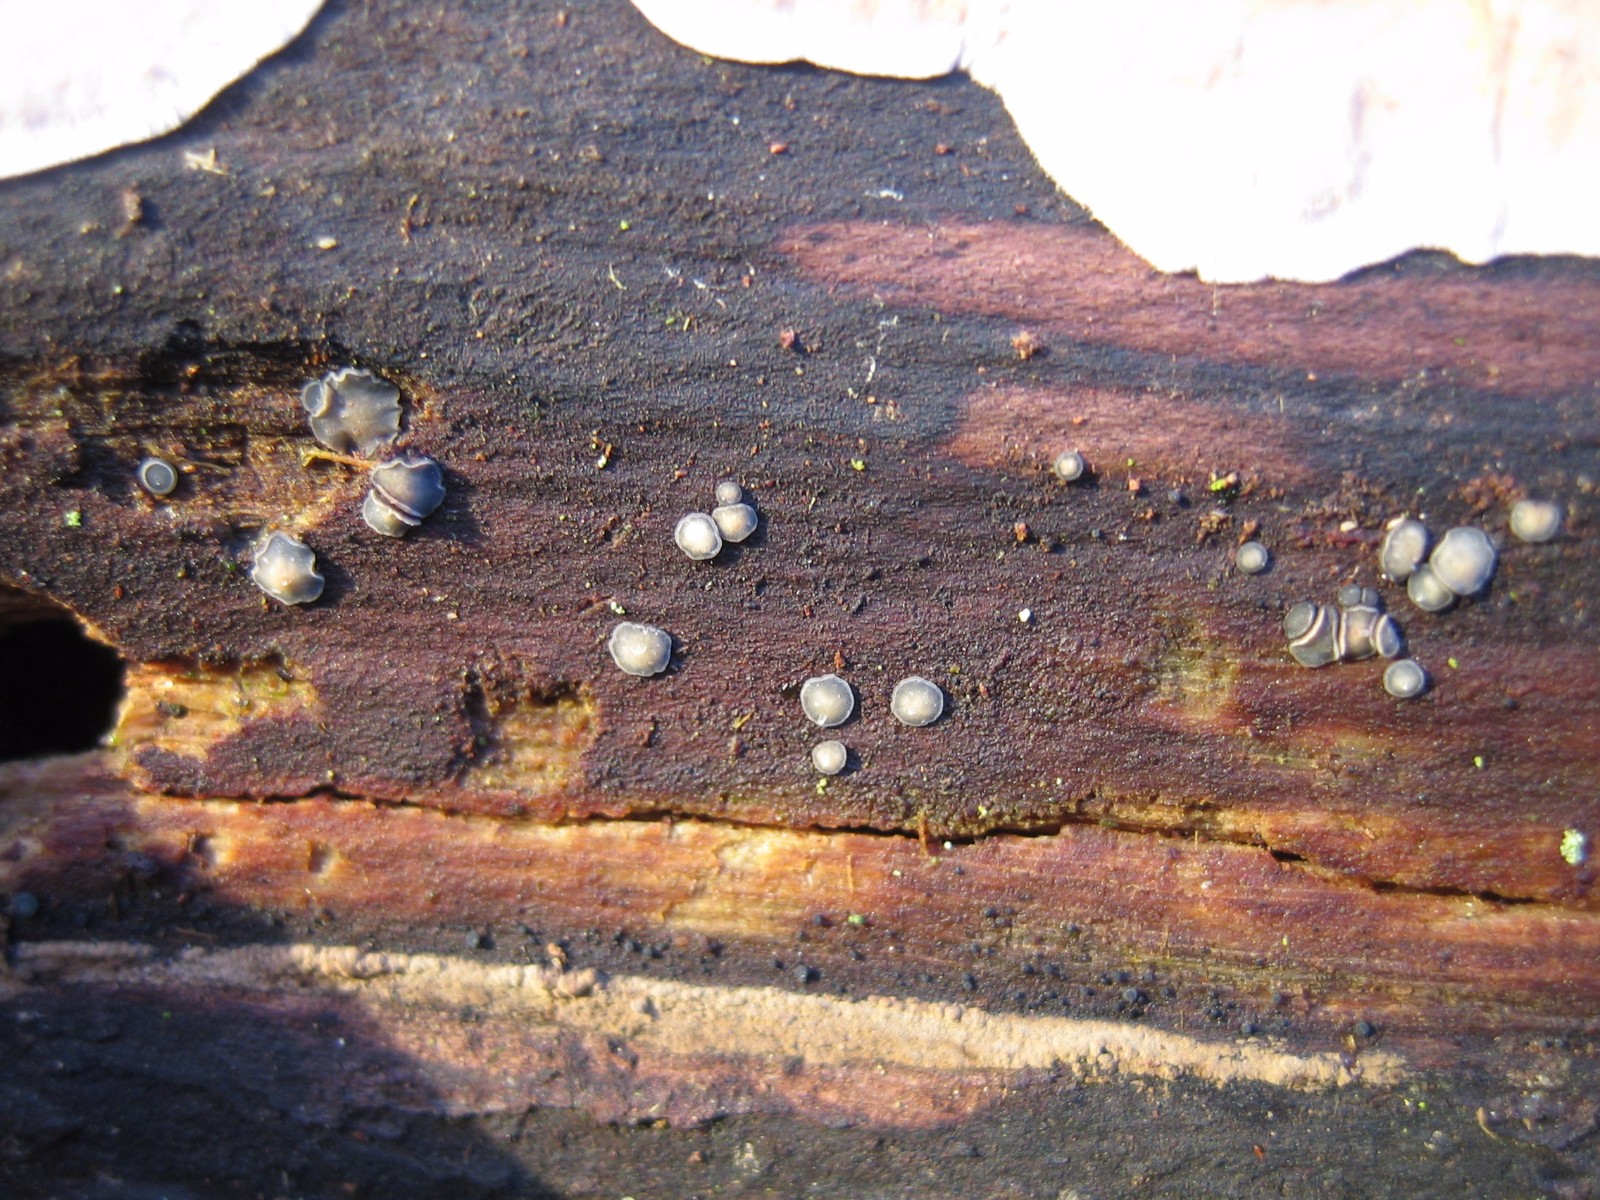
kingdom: Fungi
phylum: Ascomycota
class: Leotiomycetes
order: Helotiales
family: Mollisiaceae
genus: Mollisia
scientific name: Mollisia cinerea
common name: almindelig gråskive
